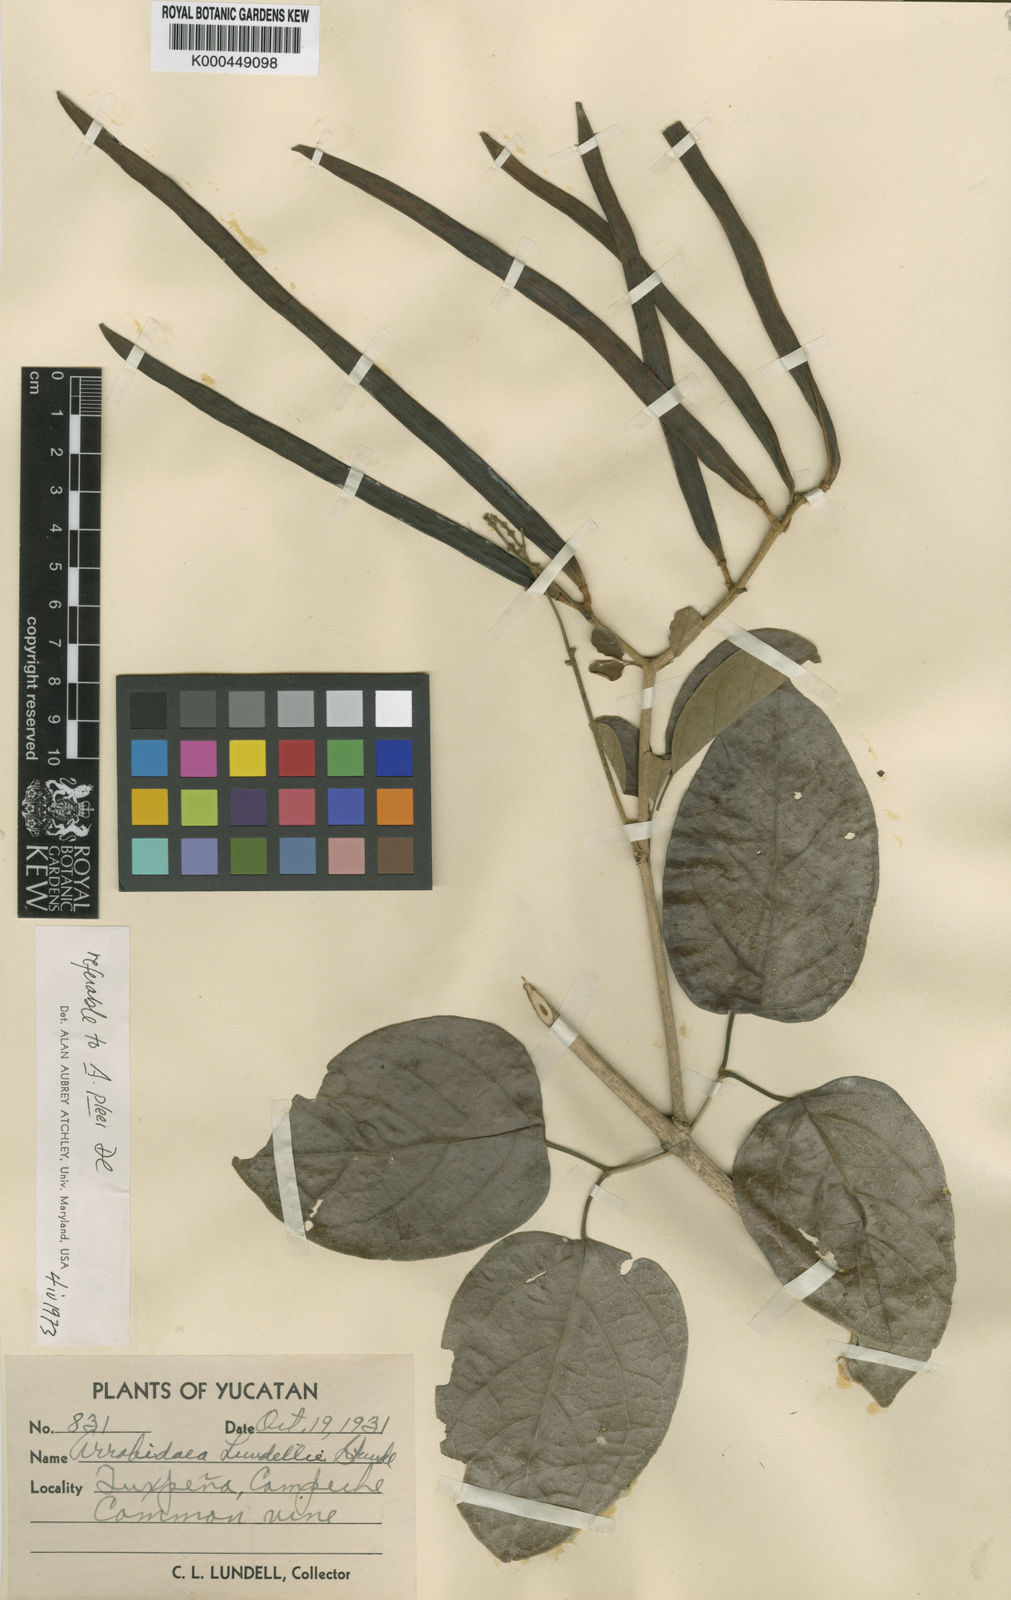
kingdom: Plantae
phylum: Tracheophyta
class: Magnoliopsida
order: Lamiales
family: Bignoniaceae
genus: Fridericia
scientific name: Fridericia pubescens
